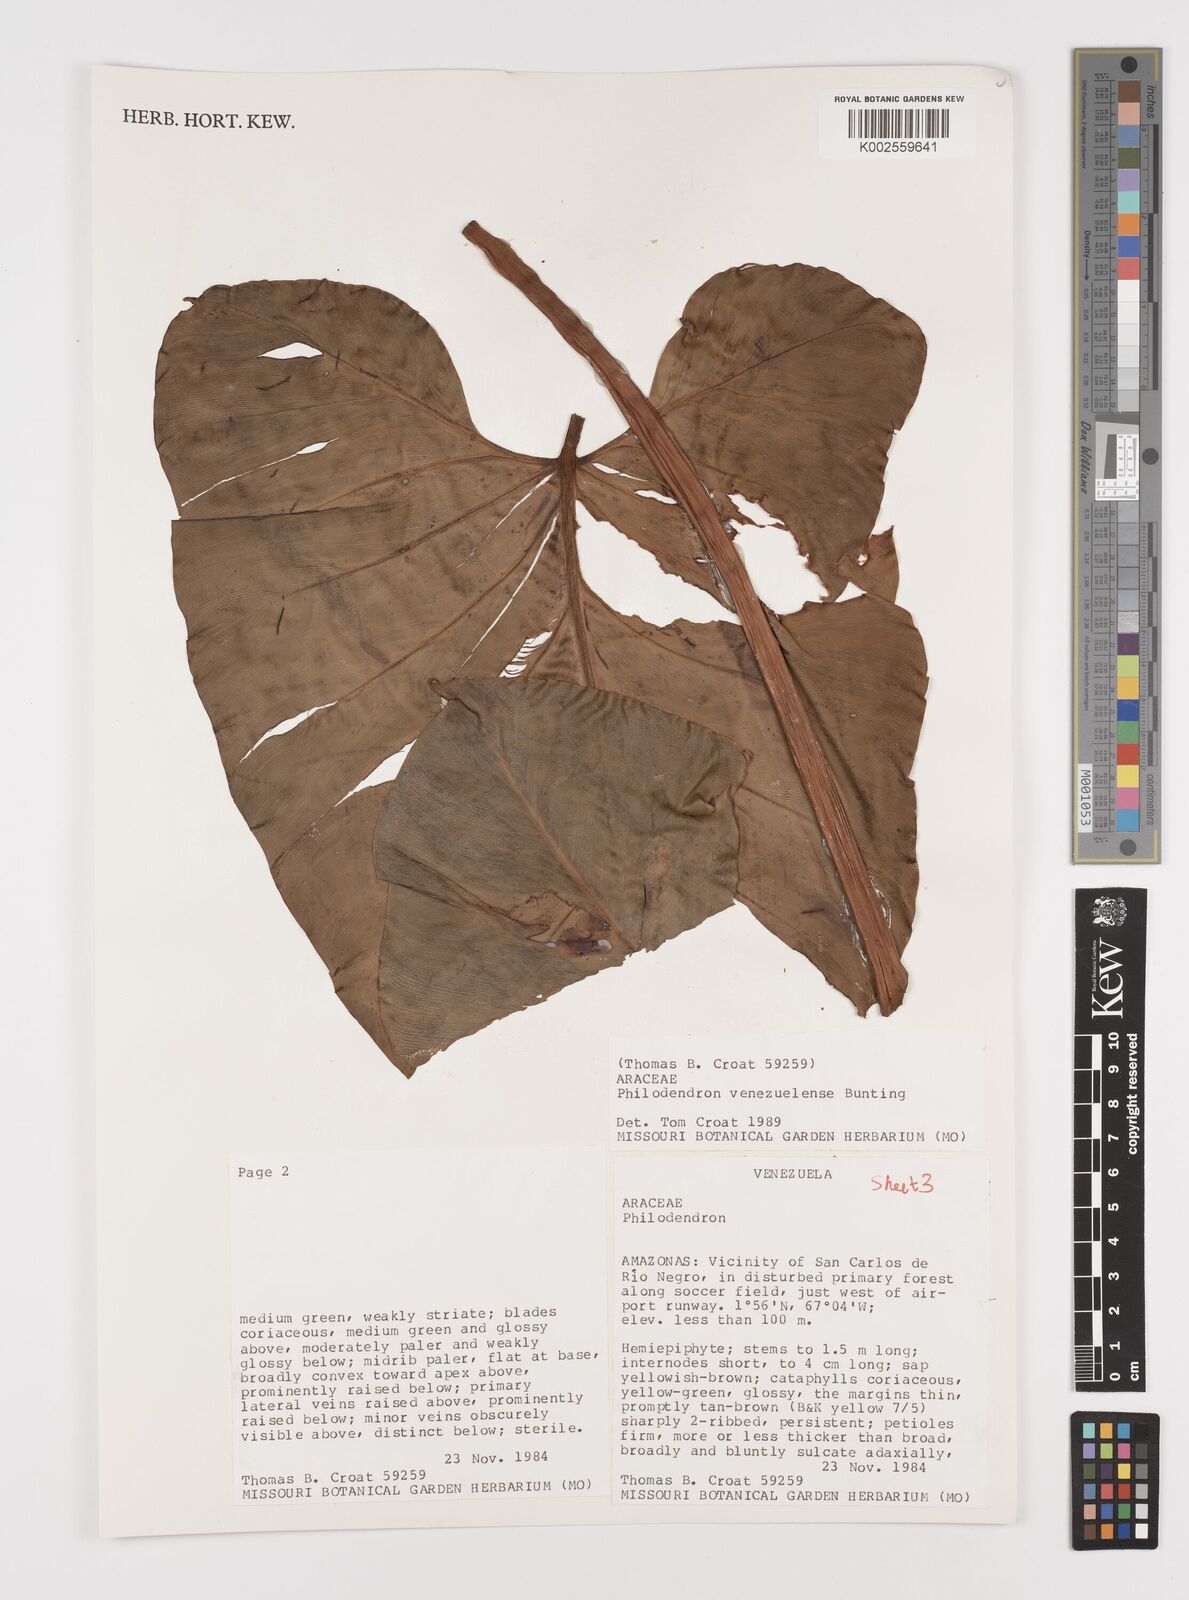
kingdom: Plantae
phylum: Tracheophyta
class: Liliopsida
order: Alismatales
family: Araceae
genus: Thaumatophyllum
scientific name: Thaumatophyllum venezuelense
